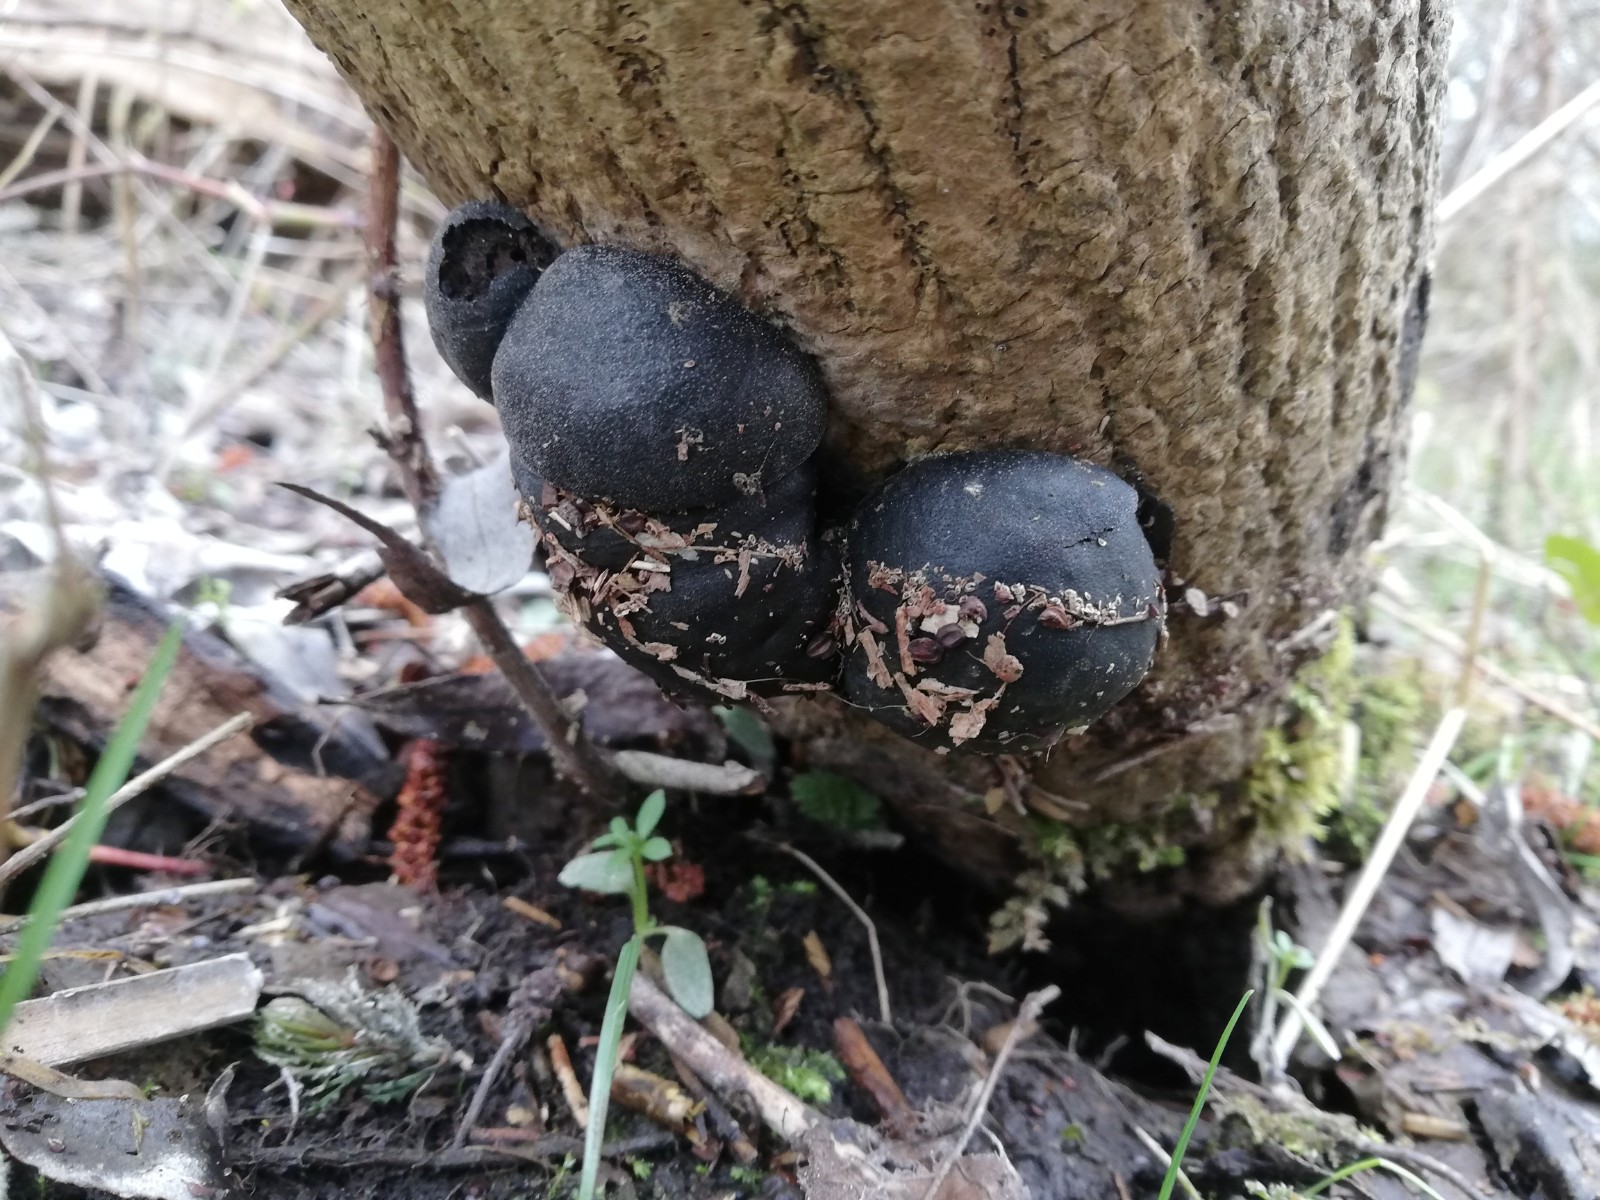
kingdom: Fungi
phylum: Ascomycota
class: Sordariomycetes
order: Xylariales
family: Hypoxylaceae
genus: Daldinia
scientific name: Daldinia concentrica
